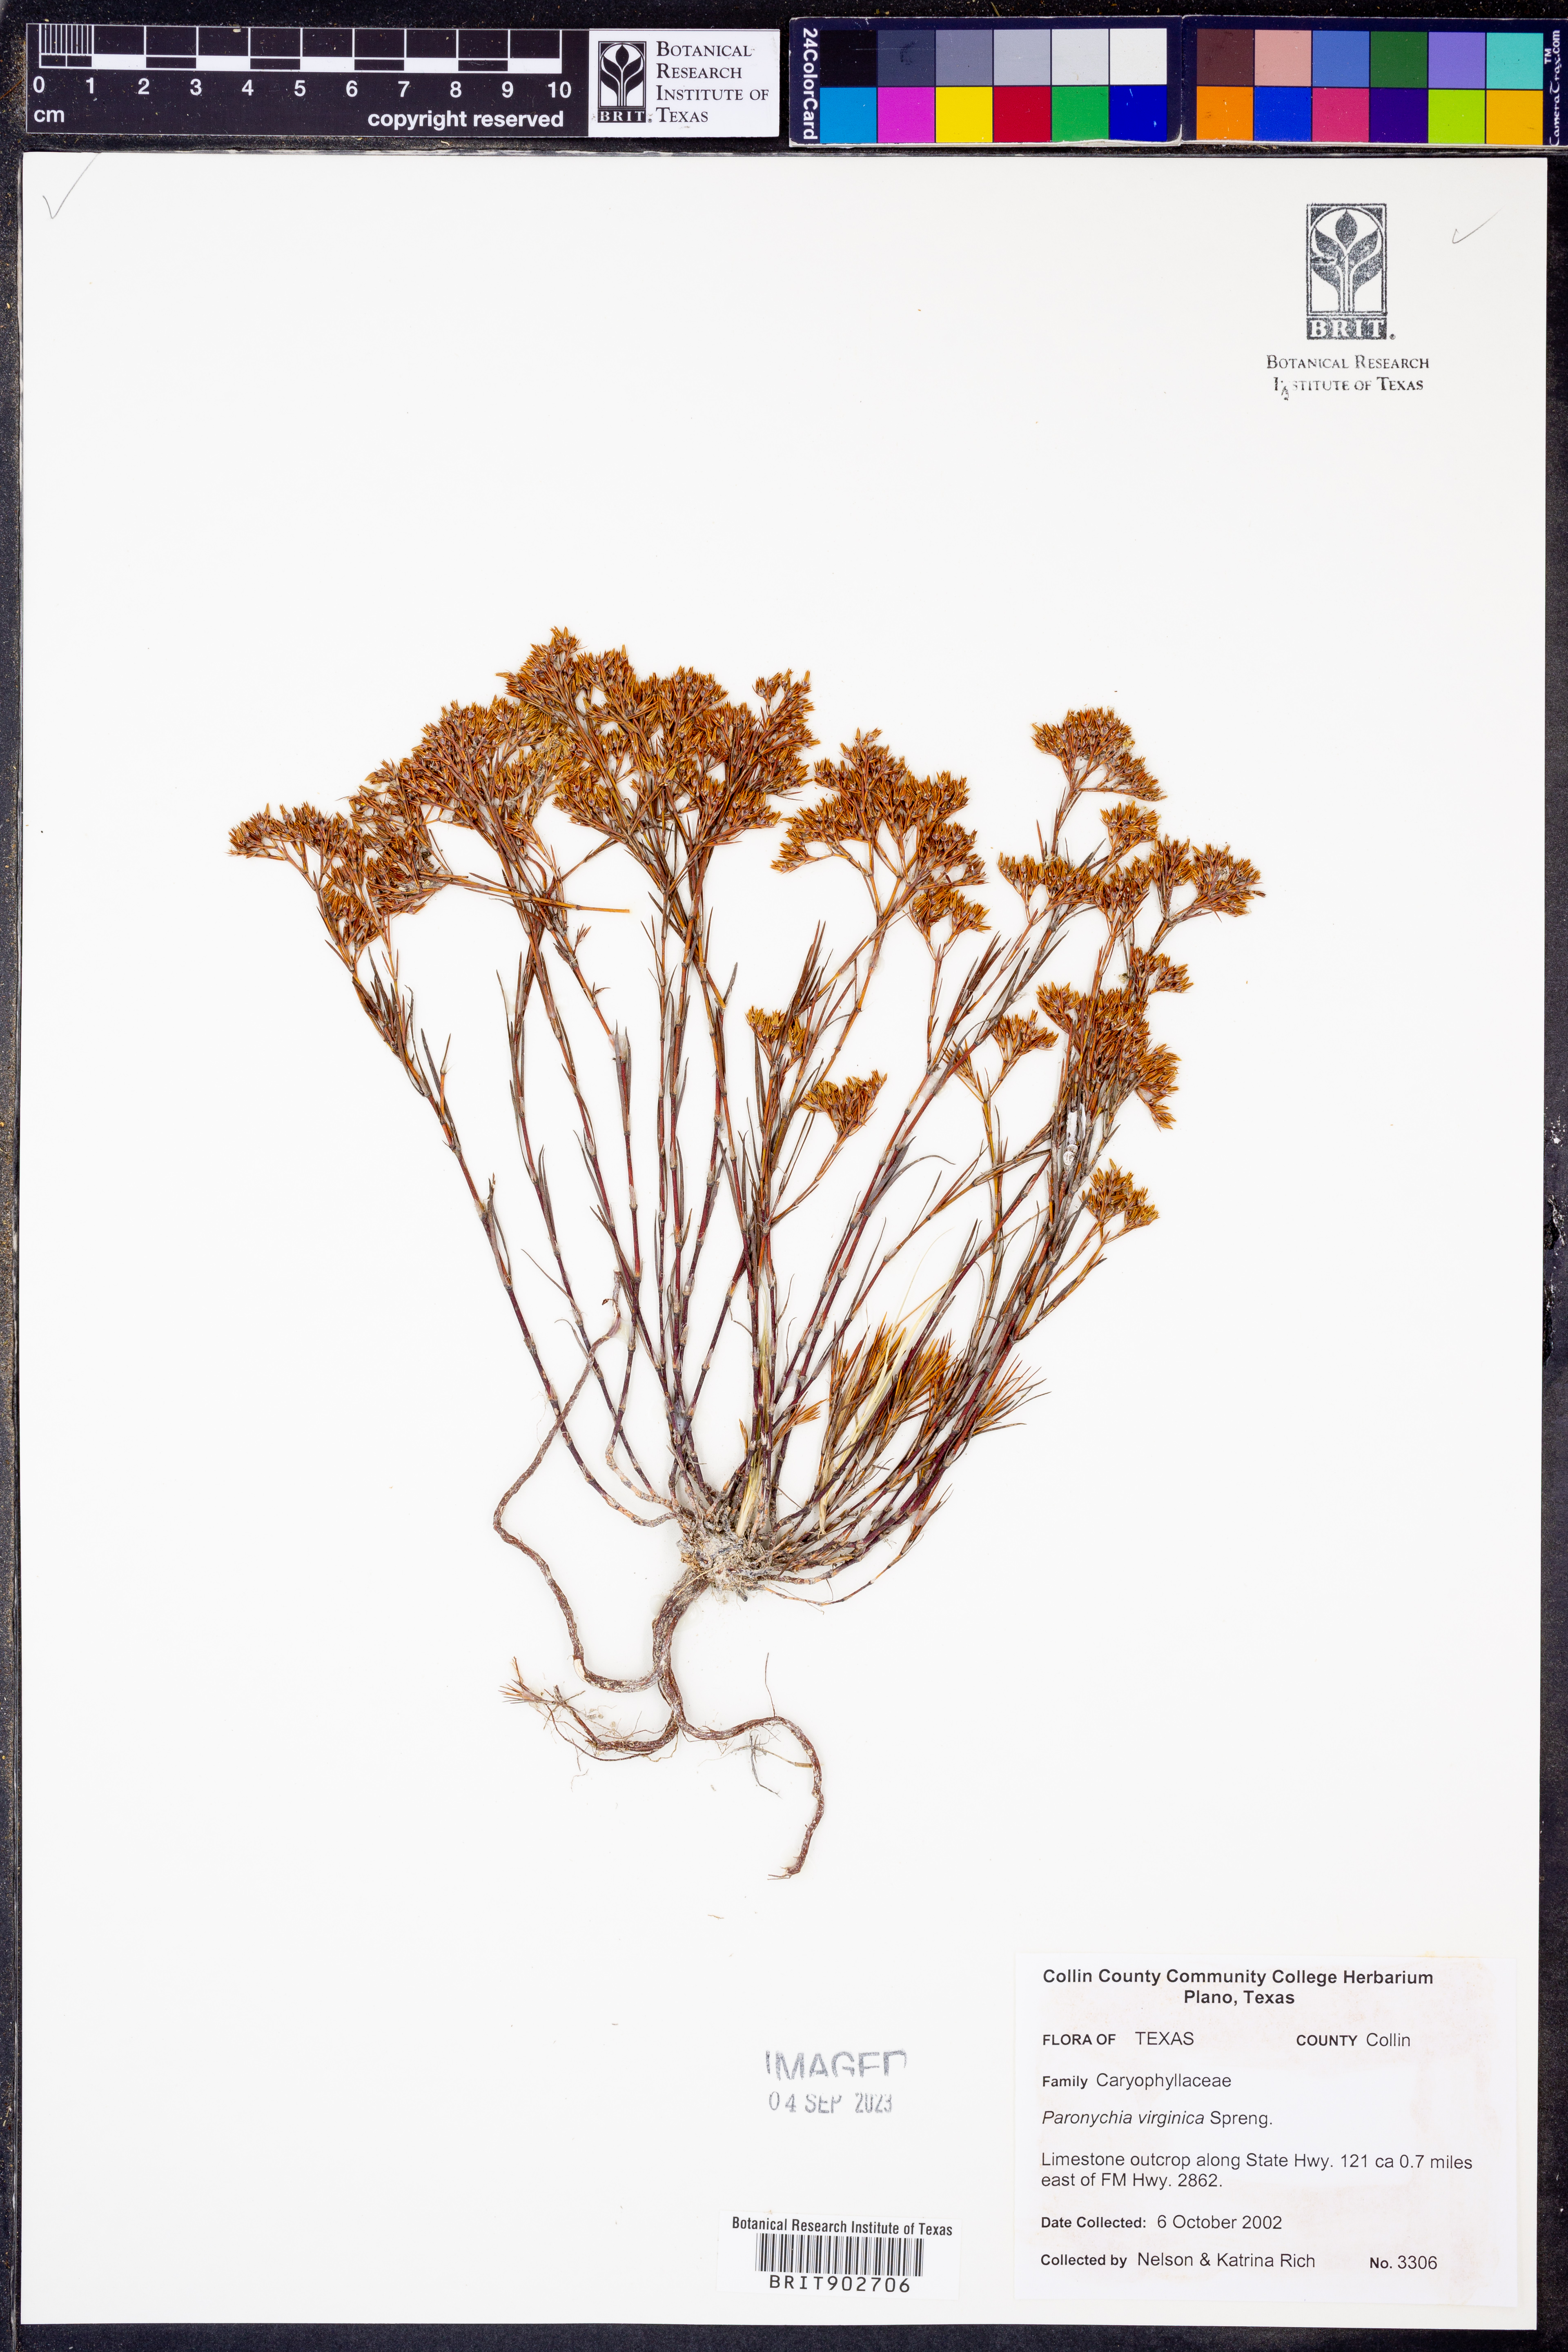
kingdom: Plantae
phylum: Tracheophyta
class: Magnoliopsida
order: Caryophyllales
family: Caryophyllaceae
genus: Paronychia
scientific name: Paronychia virginica
